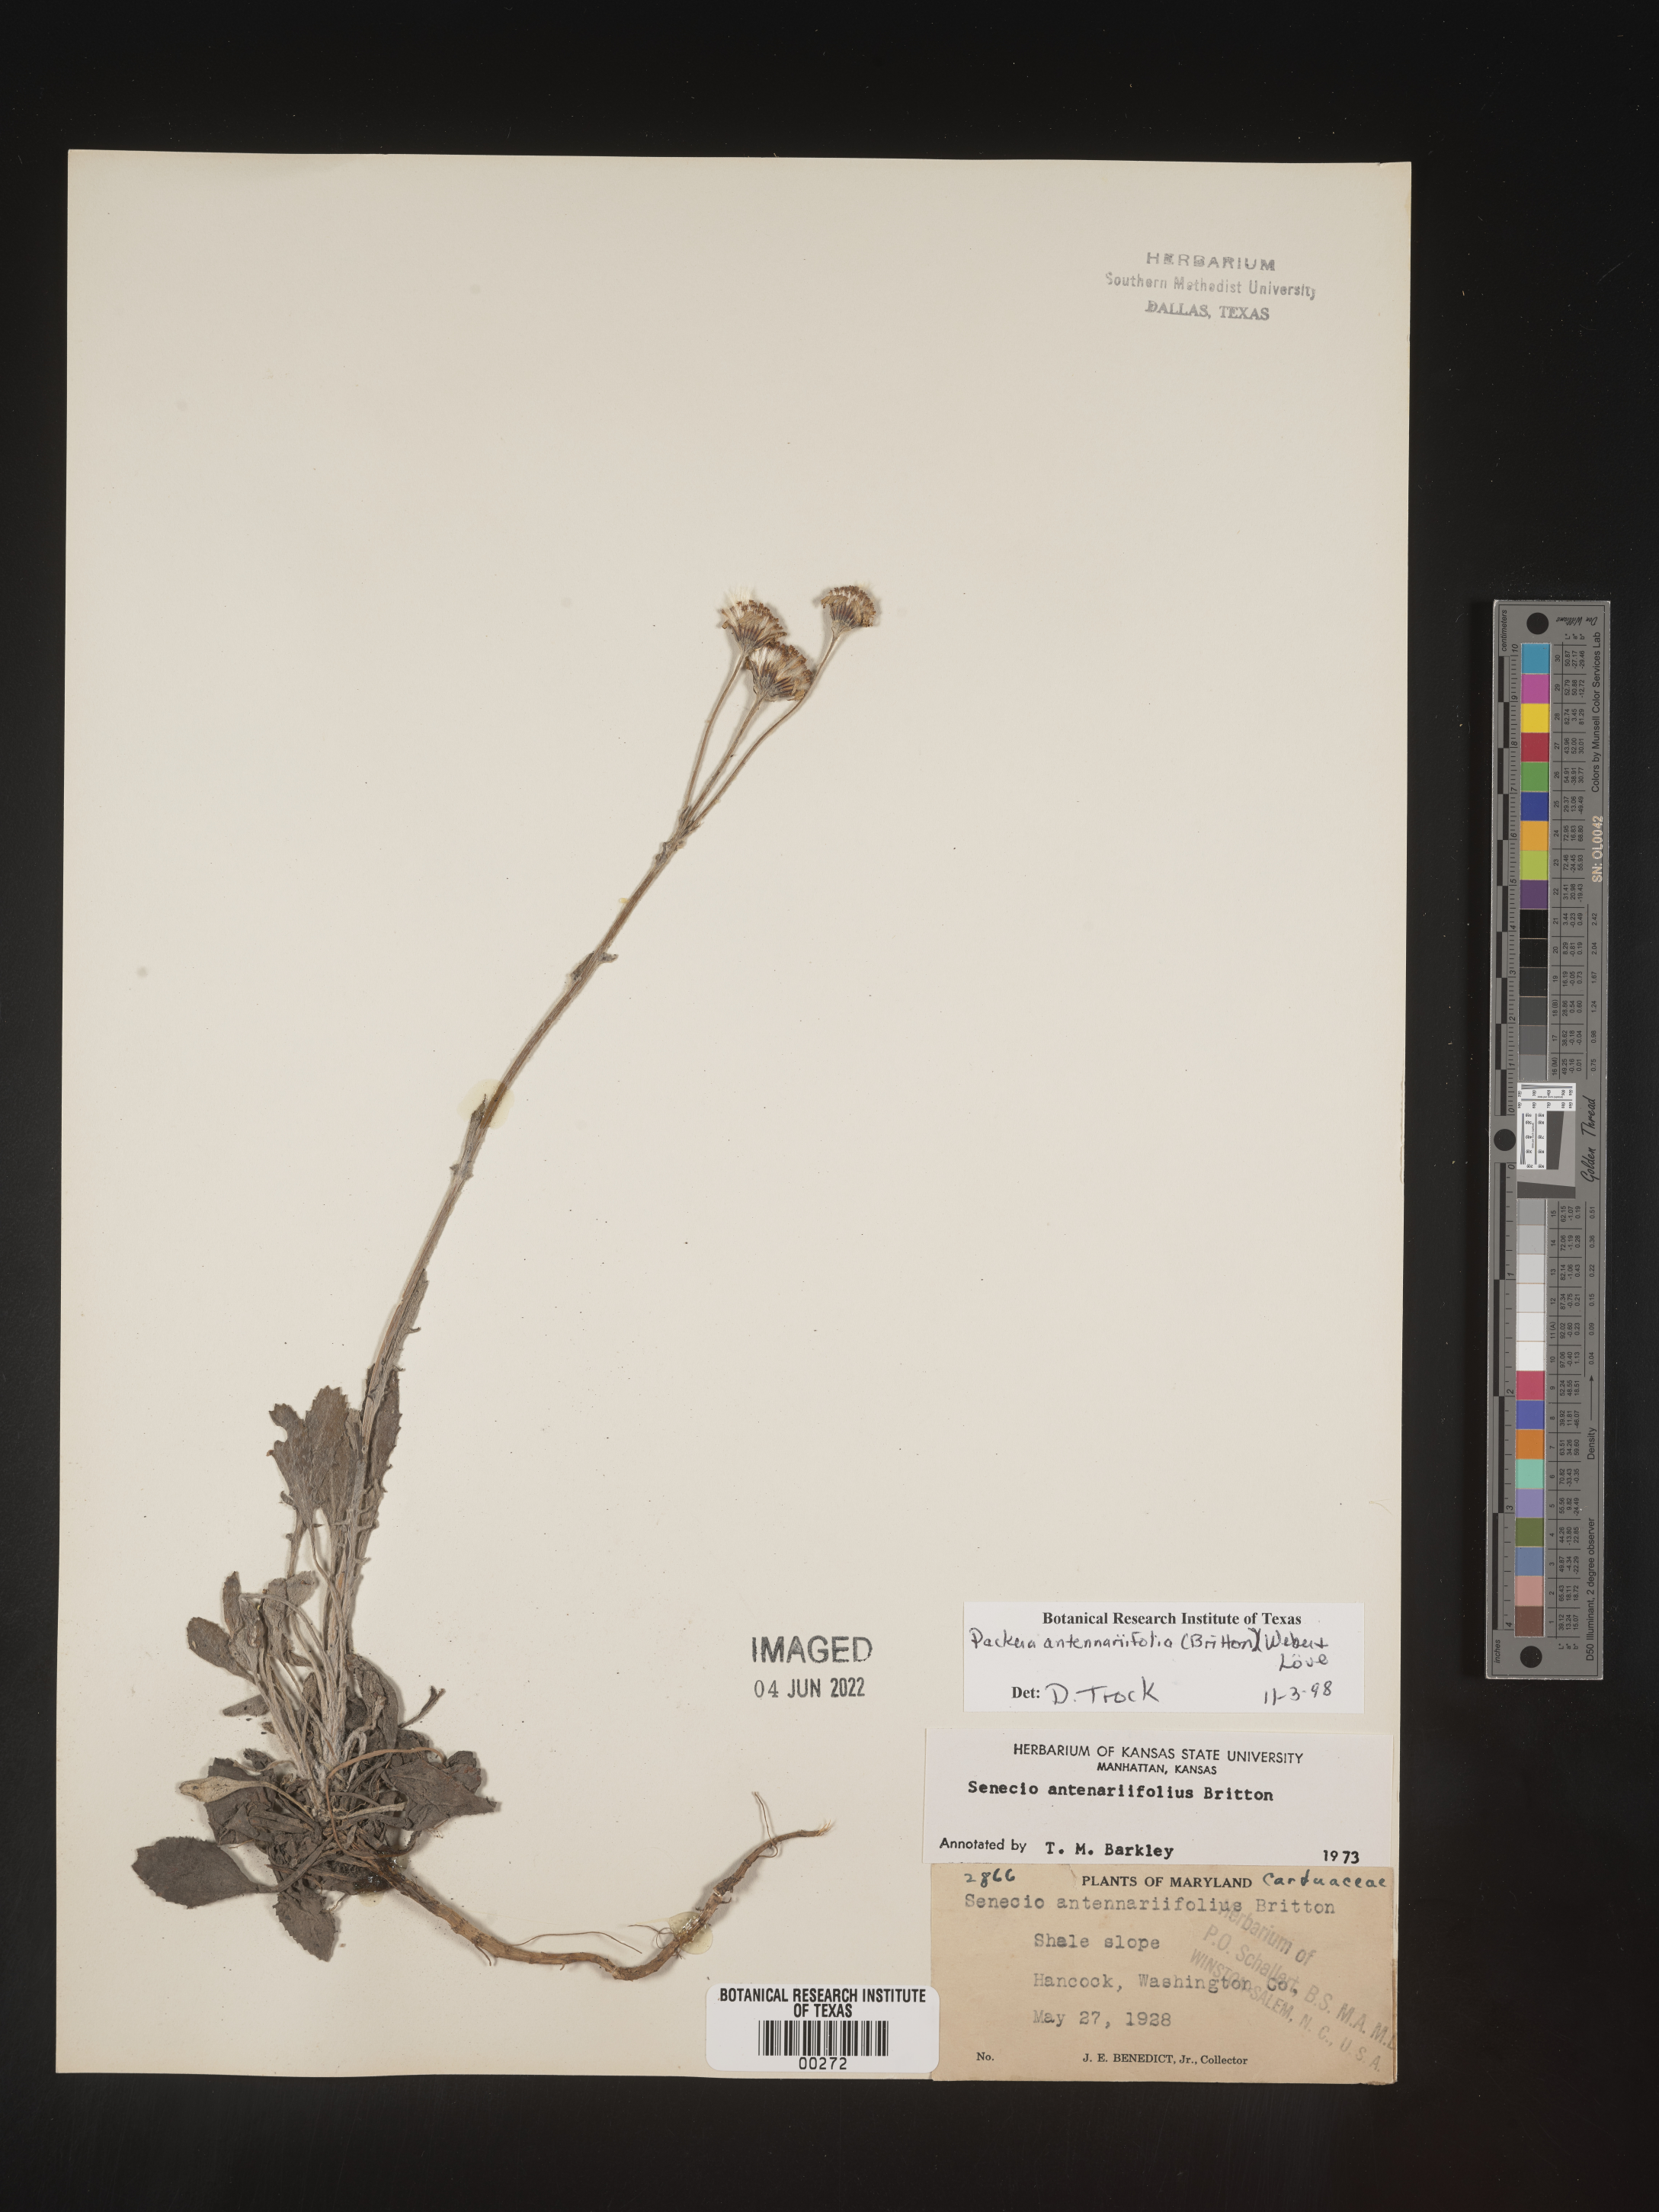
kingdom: Plantae
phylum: Tracheophyta
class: Magnoliopsida
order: Asterales
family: Asteraceae
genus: Packera
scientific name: Packera antennariifolia
